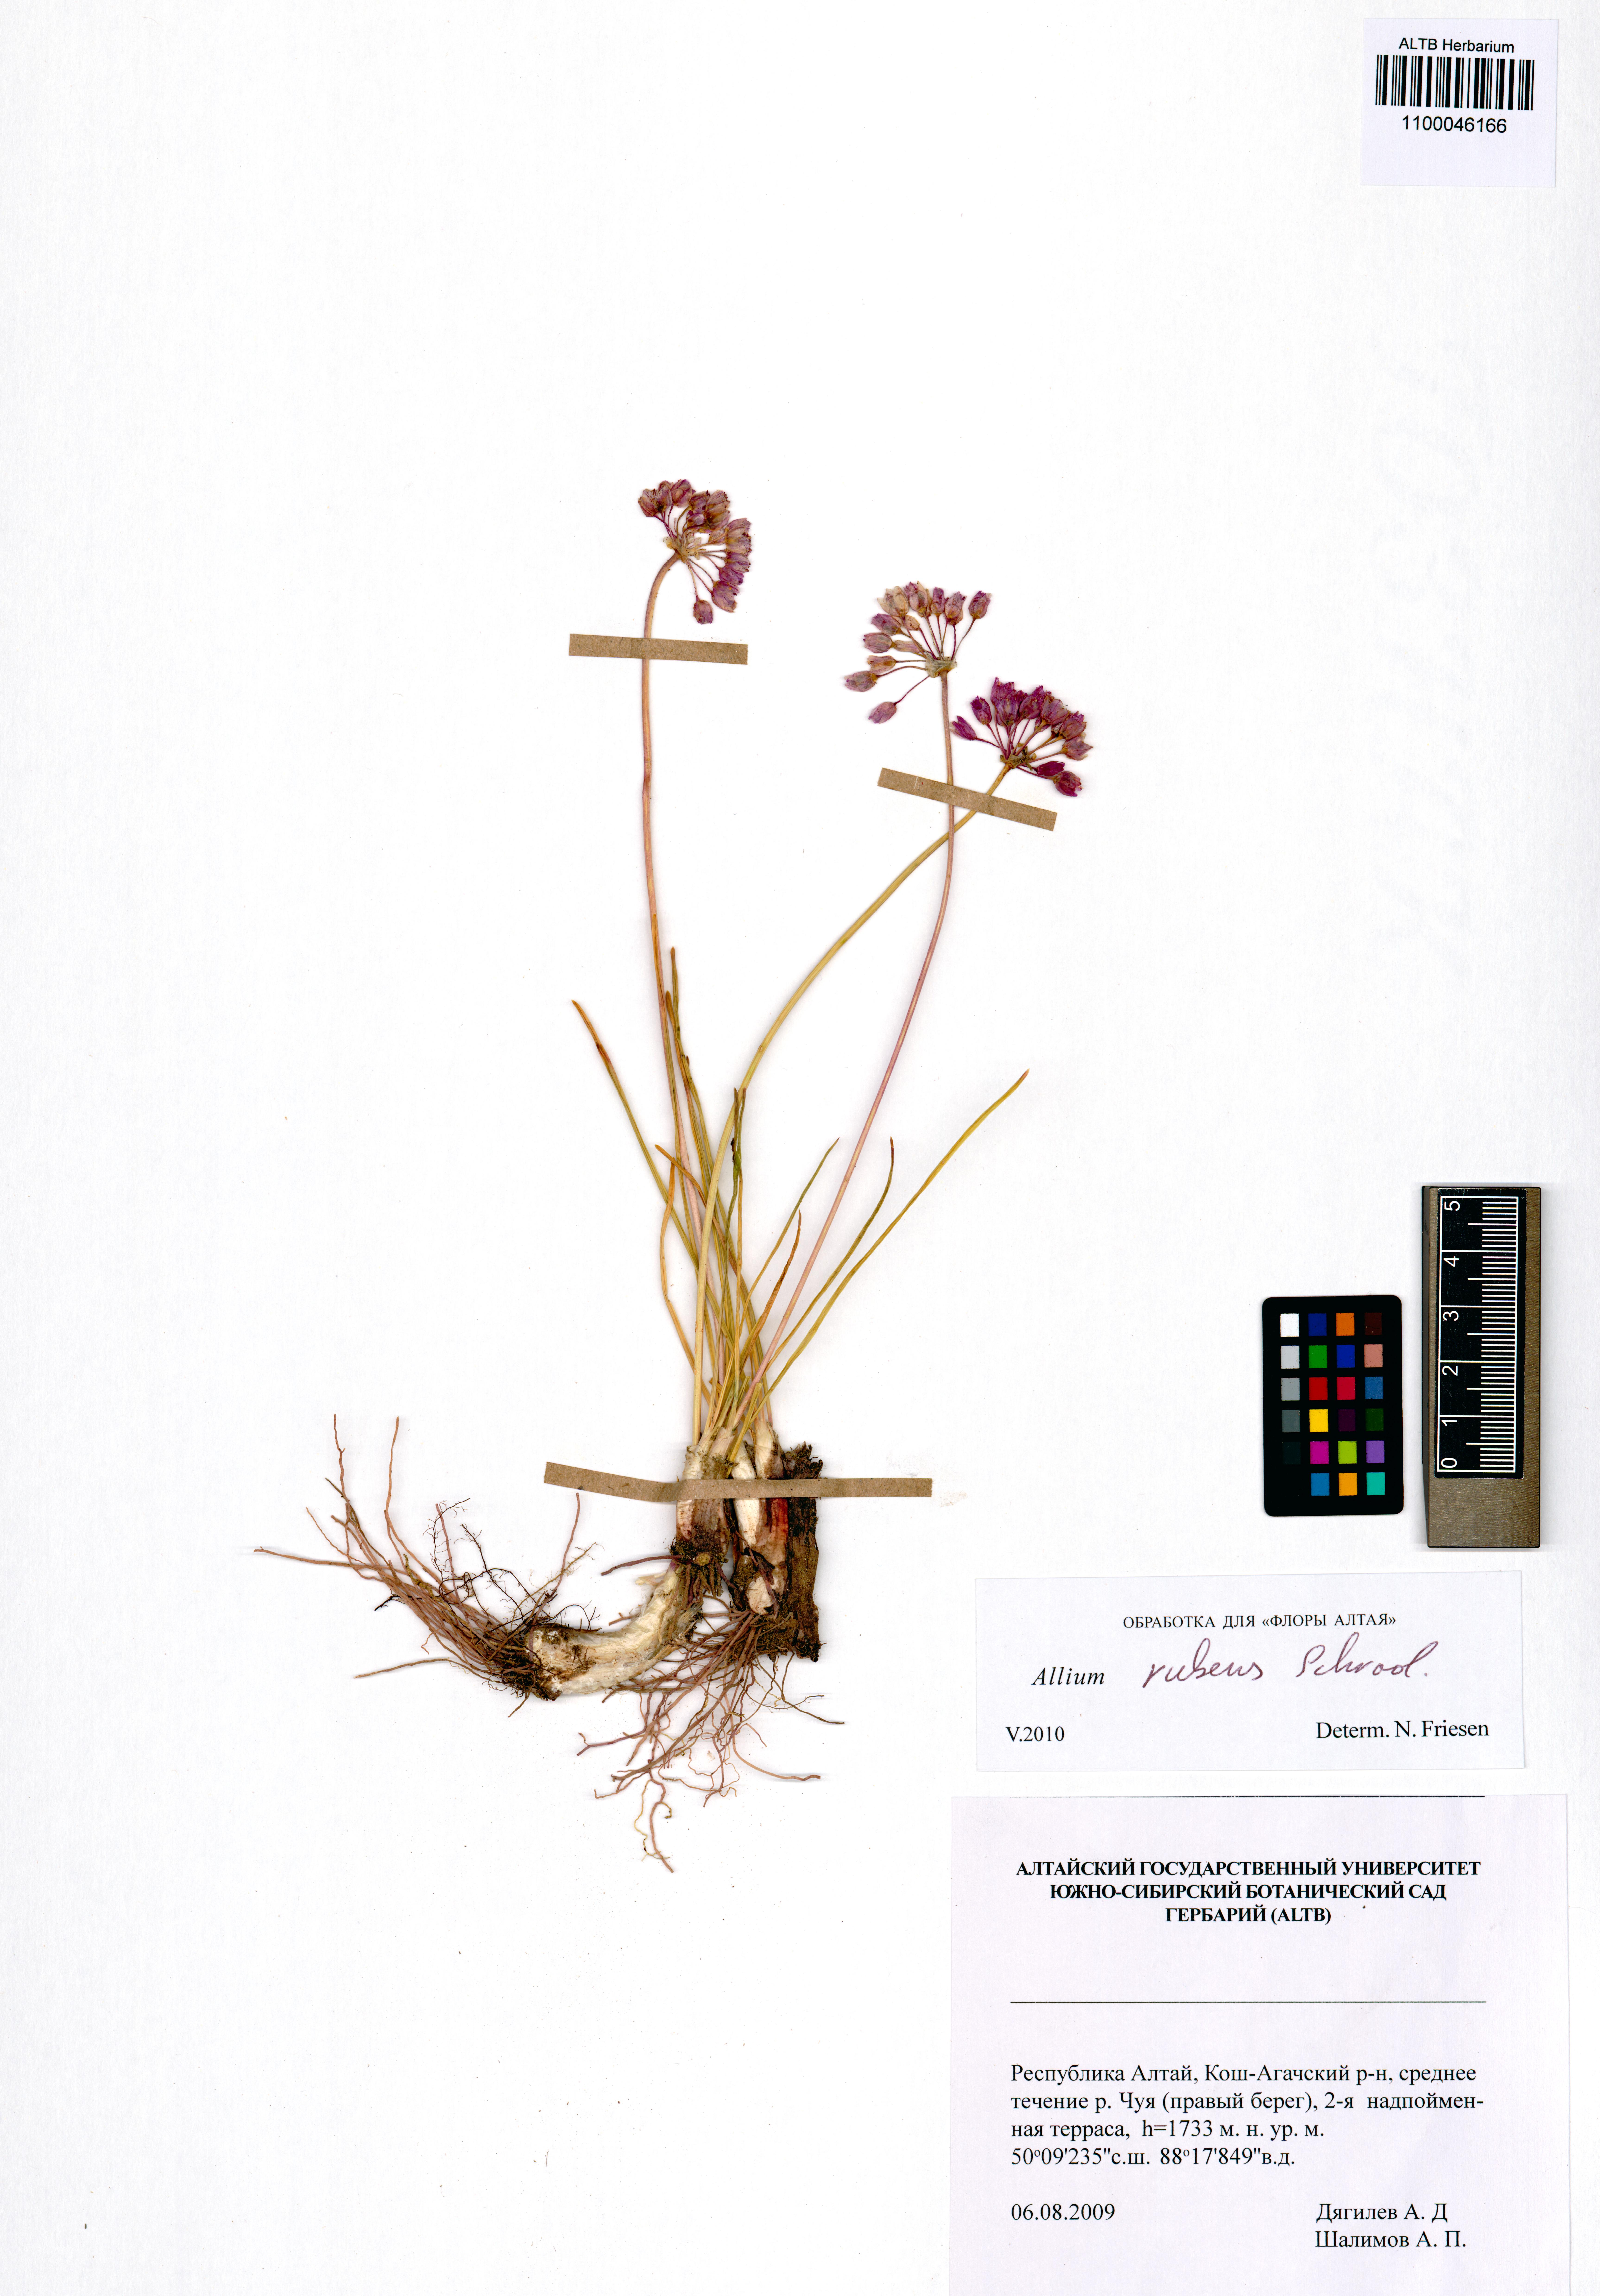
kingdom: Plantae
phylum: Tracheophyta
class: Liliopsida
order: Asparagales
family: Amaryllidaceae
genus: Allium
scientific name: Allium rubens
